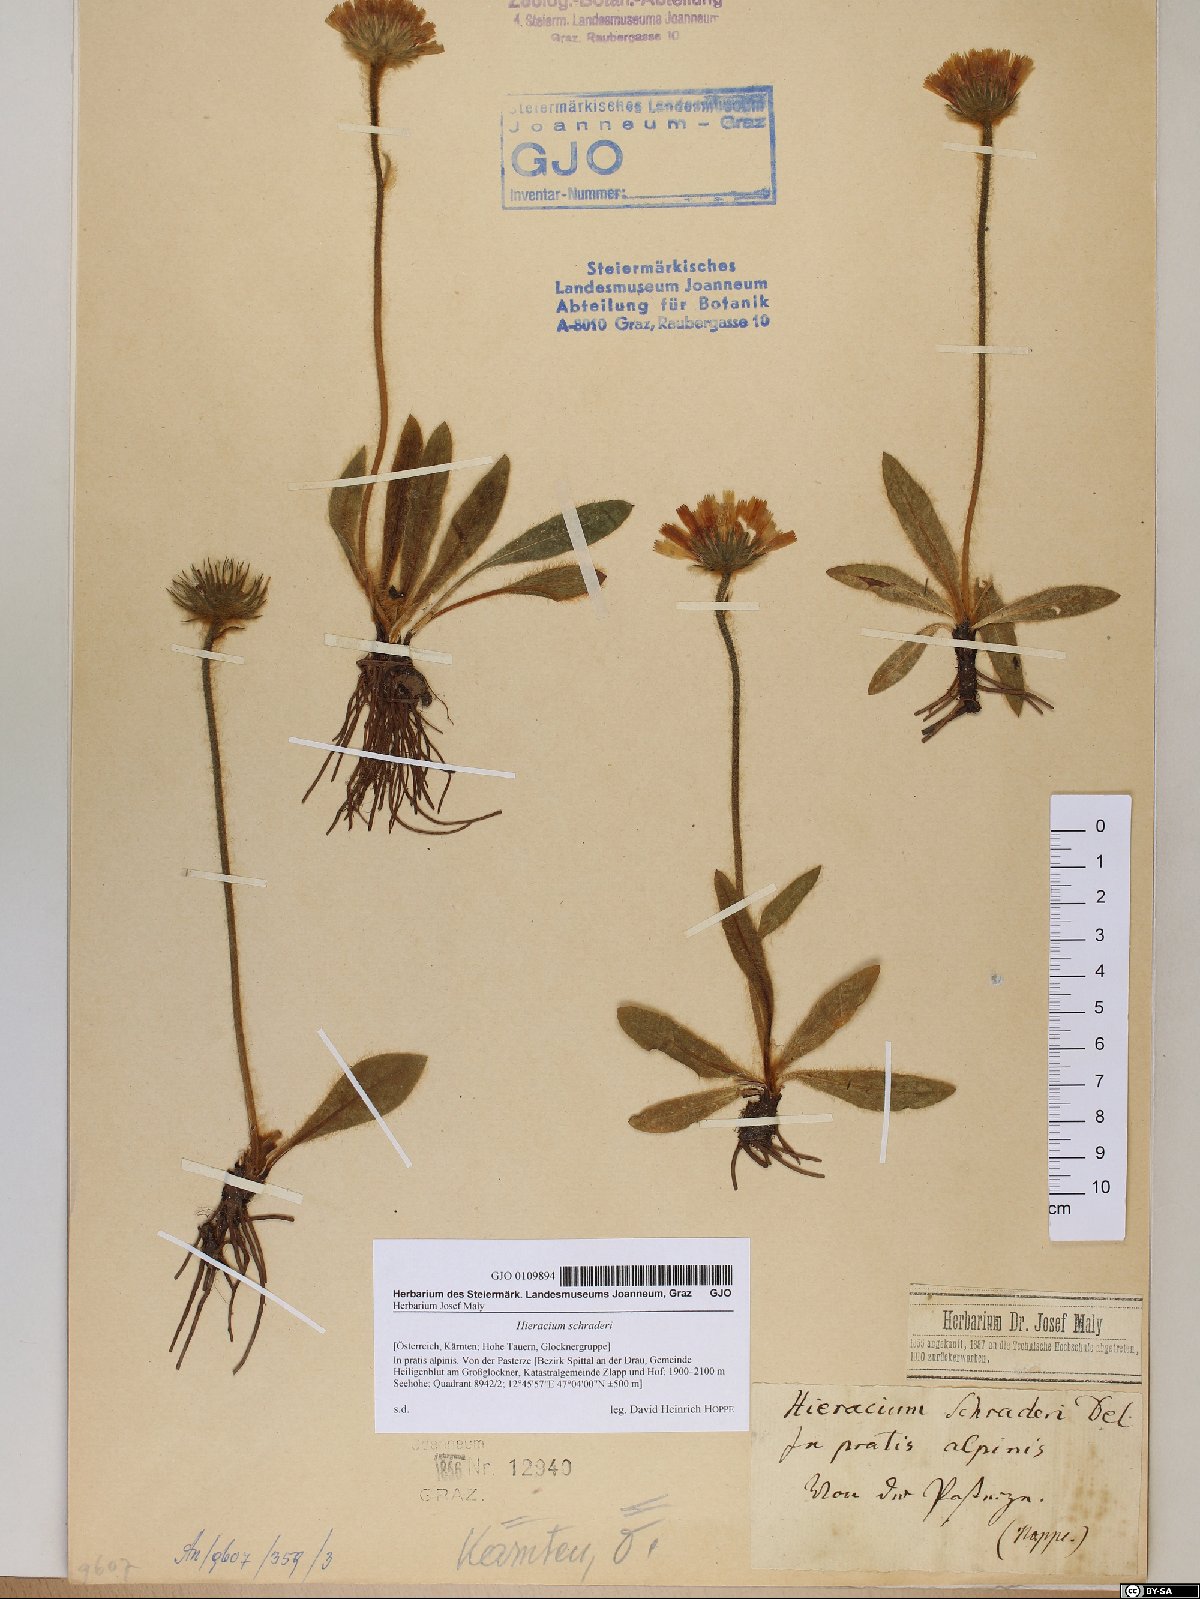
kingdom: Plantae
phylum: Tracheophyta
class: Magnoliopsida
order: Asterales
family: Asteraceae
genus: Hieracium
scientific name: Hieracium schraderi
